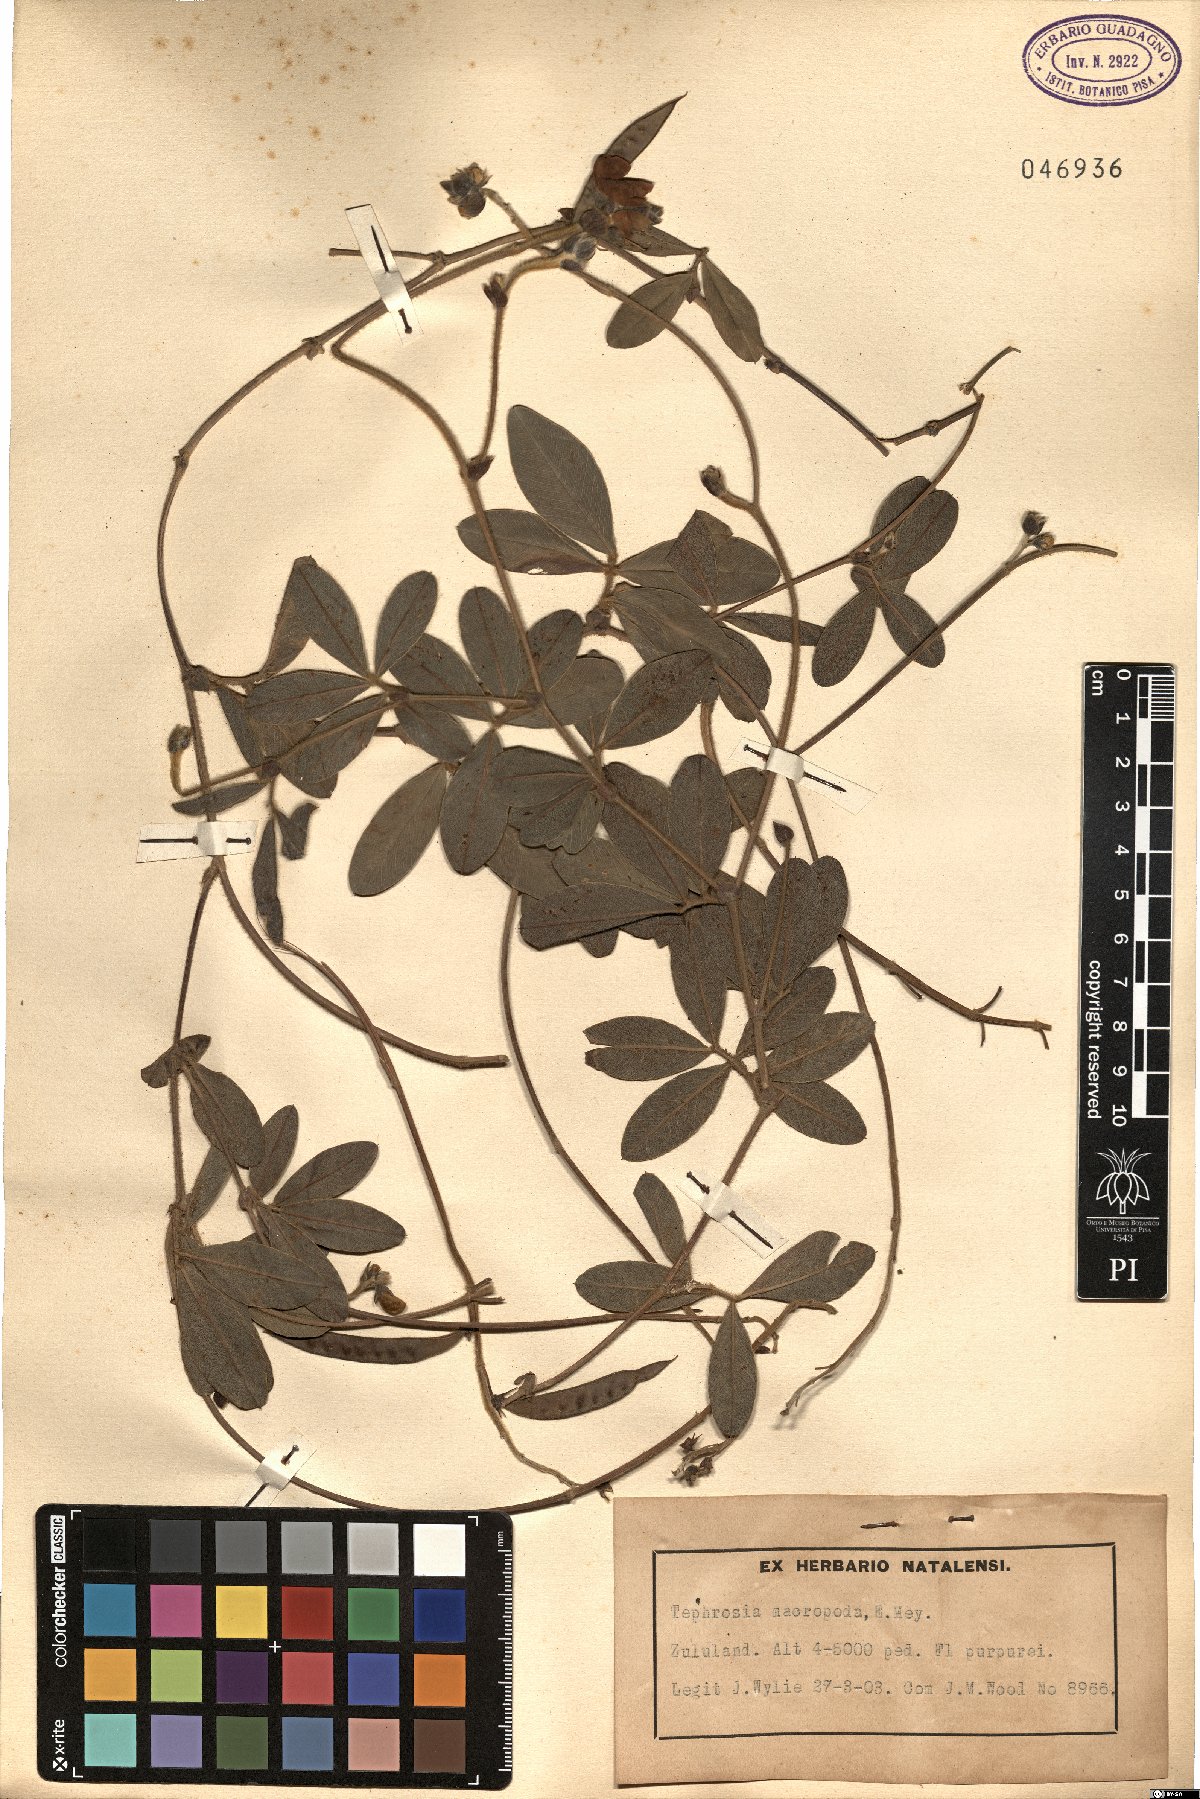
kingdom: Plantae
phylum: Tracheophyta
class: Magnoliopsida
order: Fabales
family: Fabaceae
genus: Tephrosia
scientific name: Tephrosia macropoda
